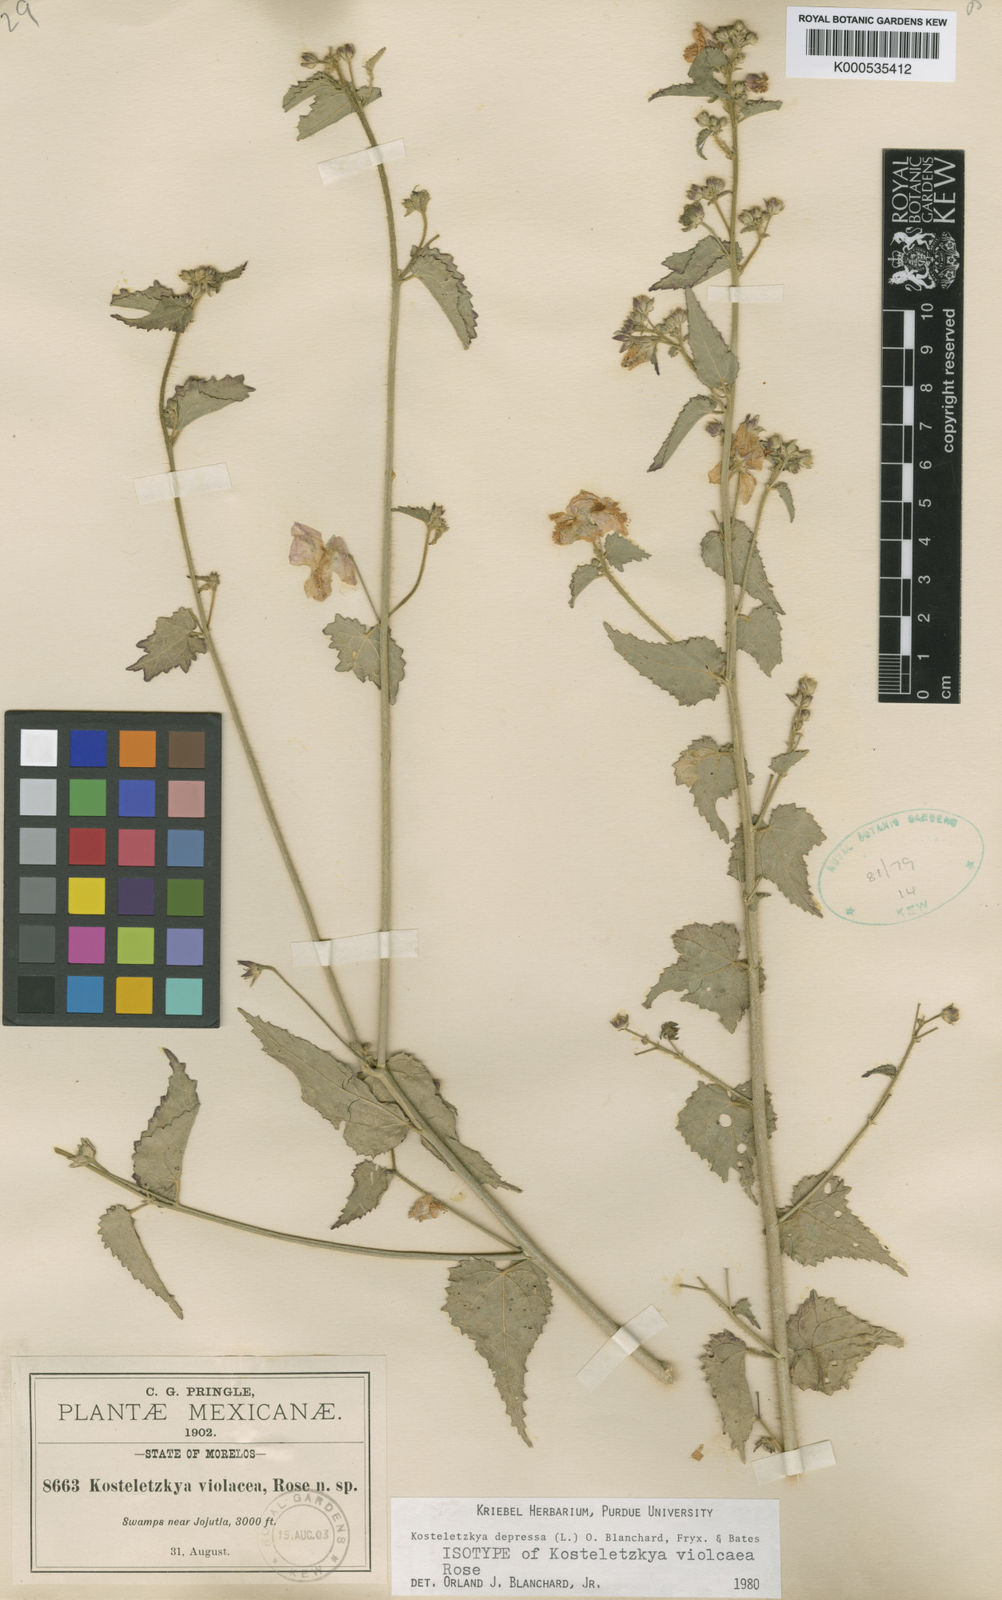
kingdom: Plantae
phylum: Tracheophyta
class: Magnoliopsida
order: Malvales
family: Malvaceae
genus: Kosteletzkya
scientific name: Kosteletzkya depressa
